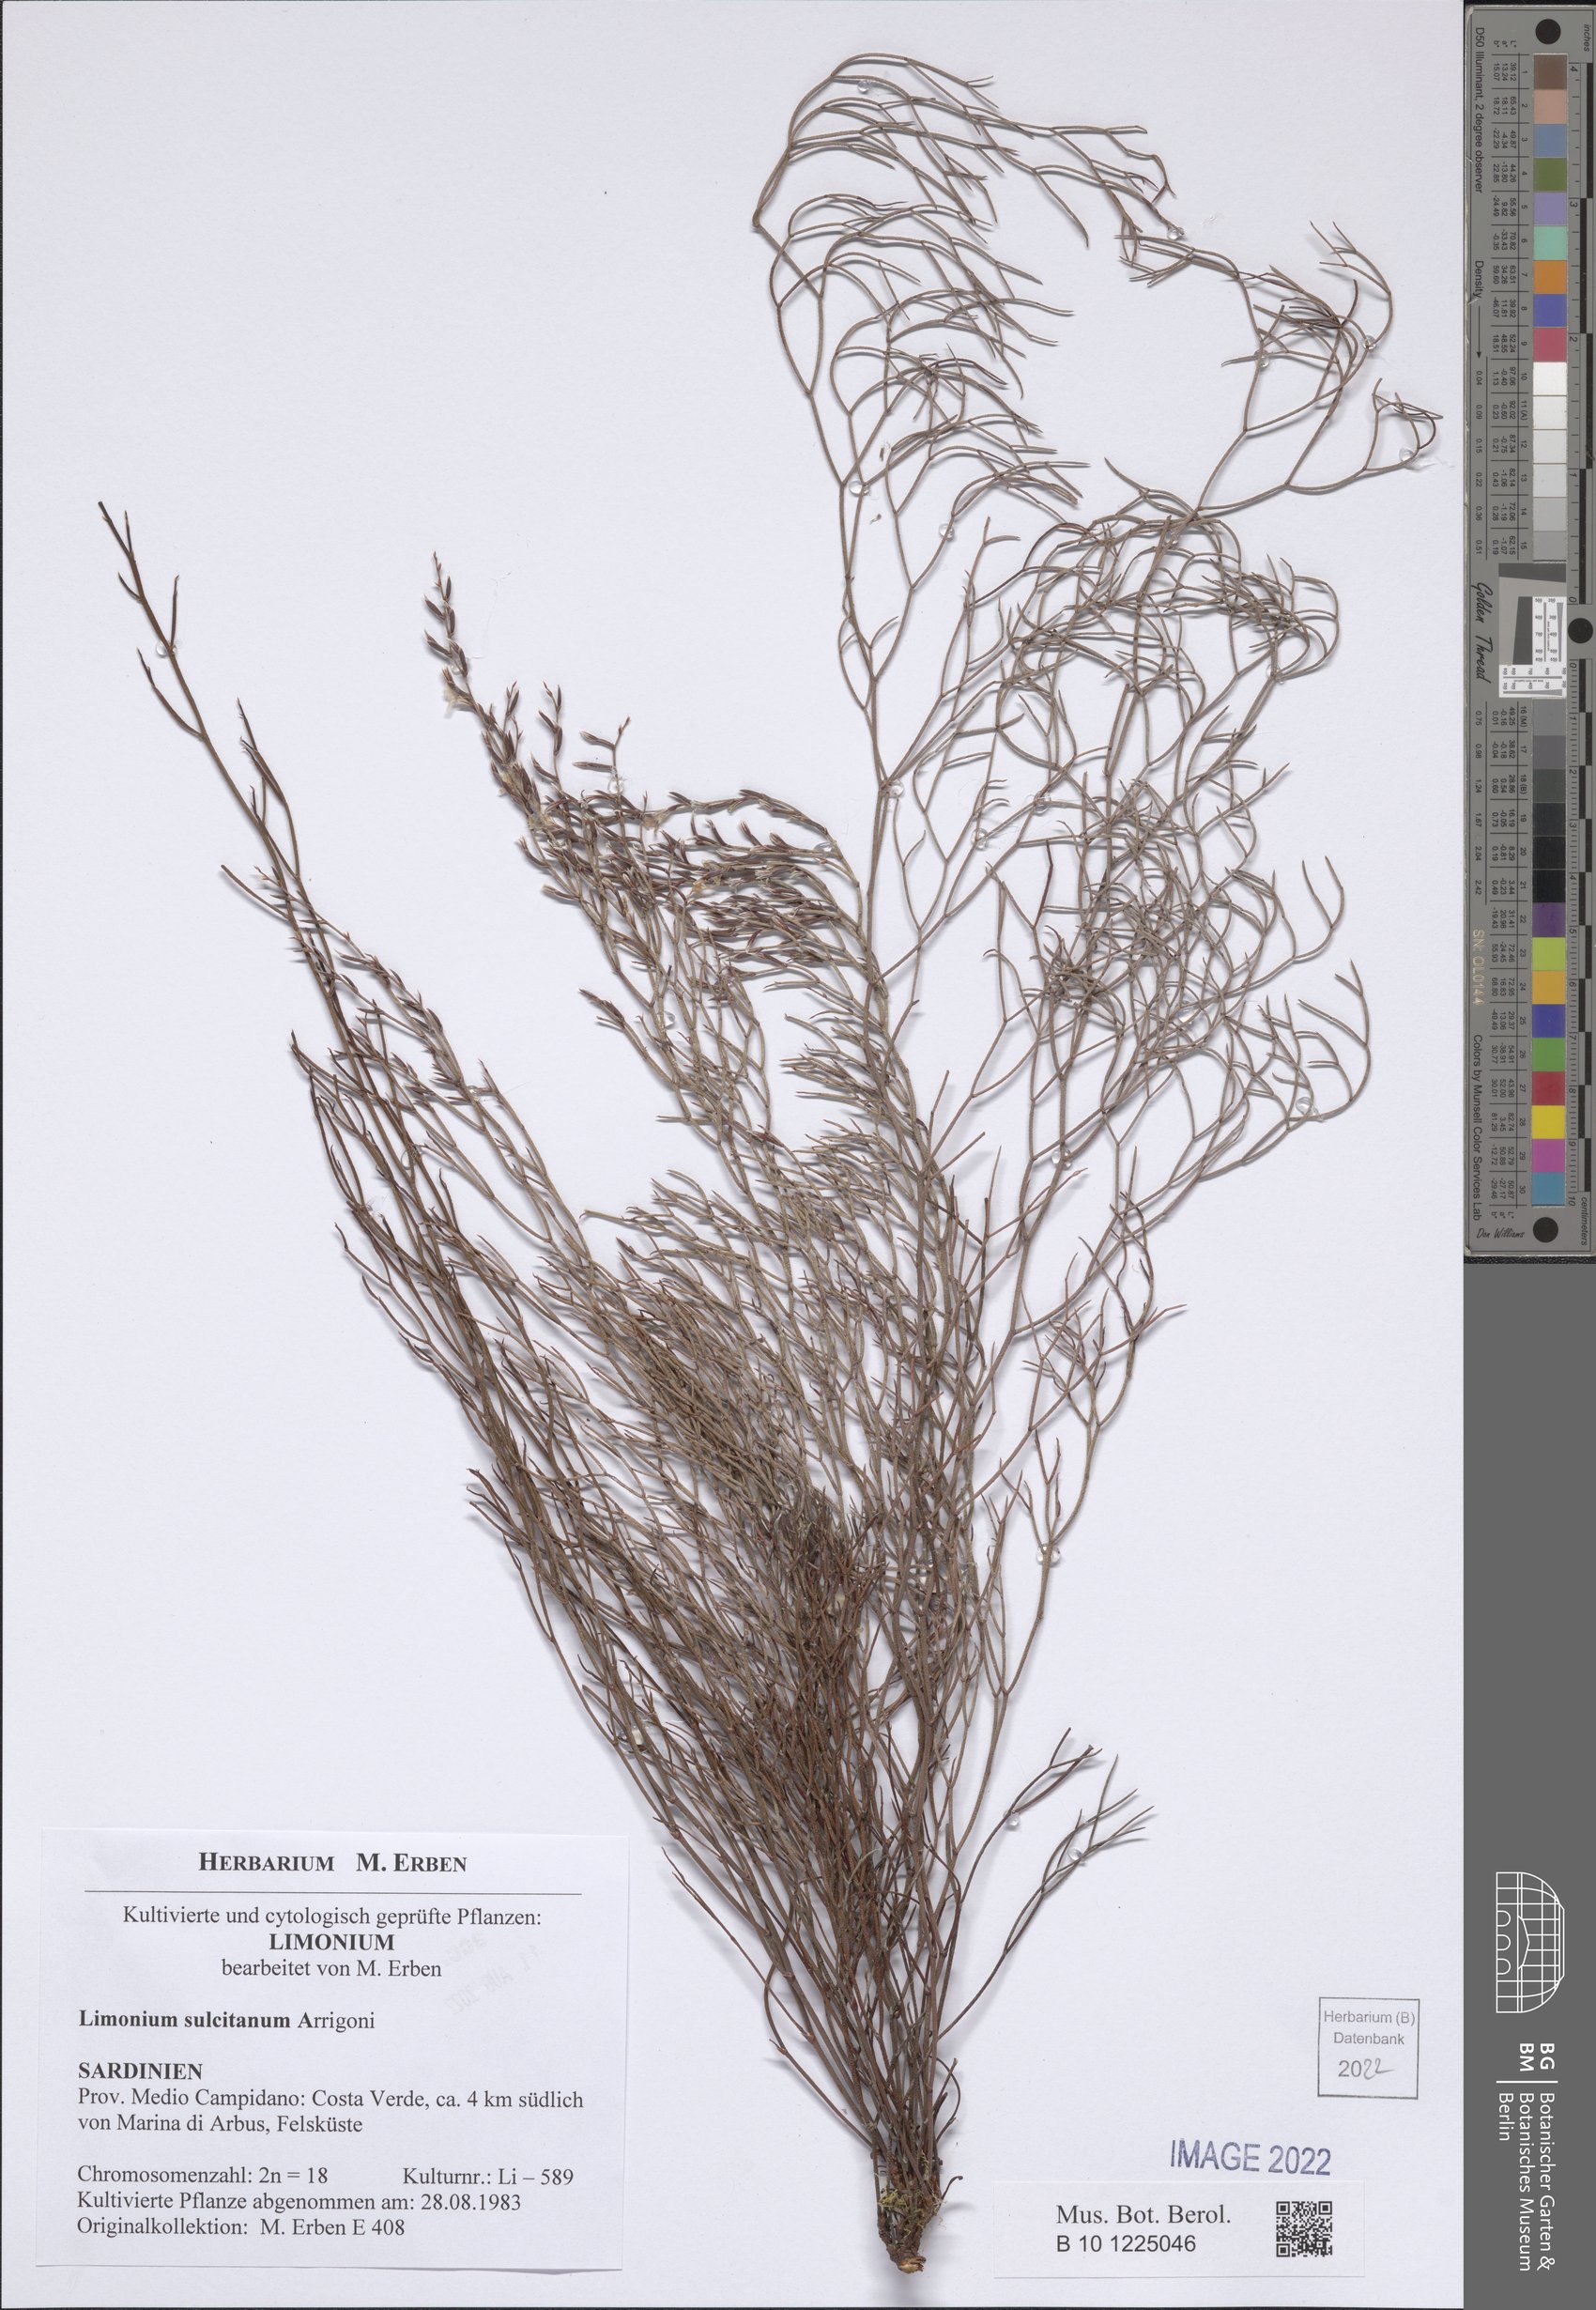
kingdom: Plantae
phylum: Tracheophyta
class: Magnoliopsida
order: Caryophyllales
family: Plumbaginaceae
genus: Limonium
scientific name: Limonium sulcitanum
